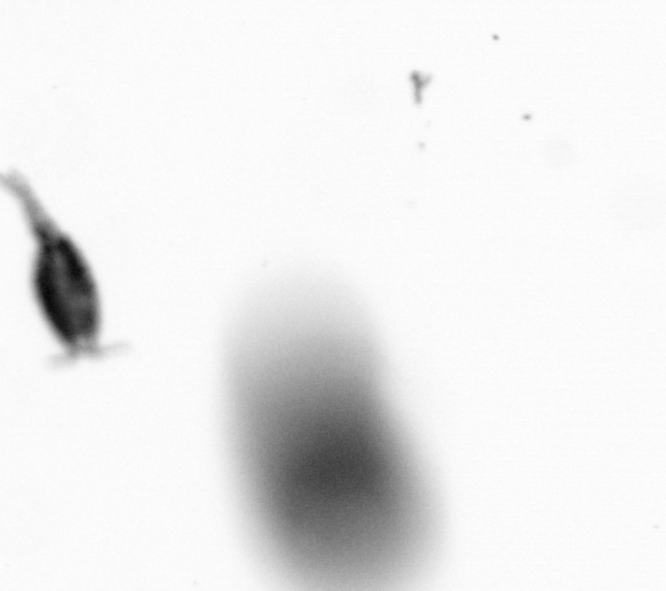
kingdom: Animalia
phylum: Arthropoda
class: Copepoda
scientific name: Copepoda
